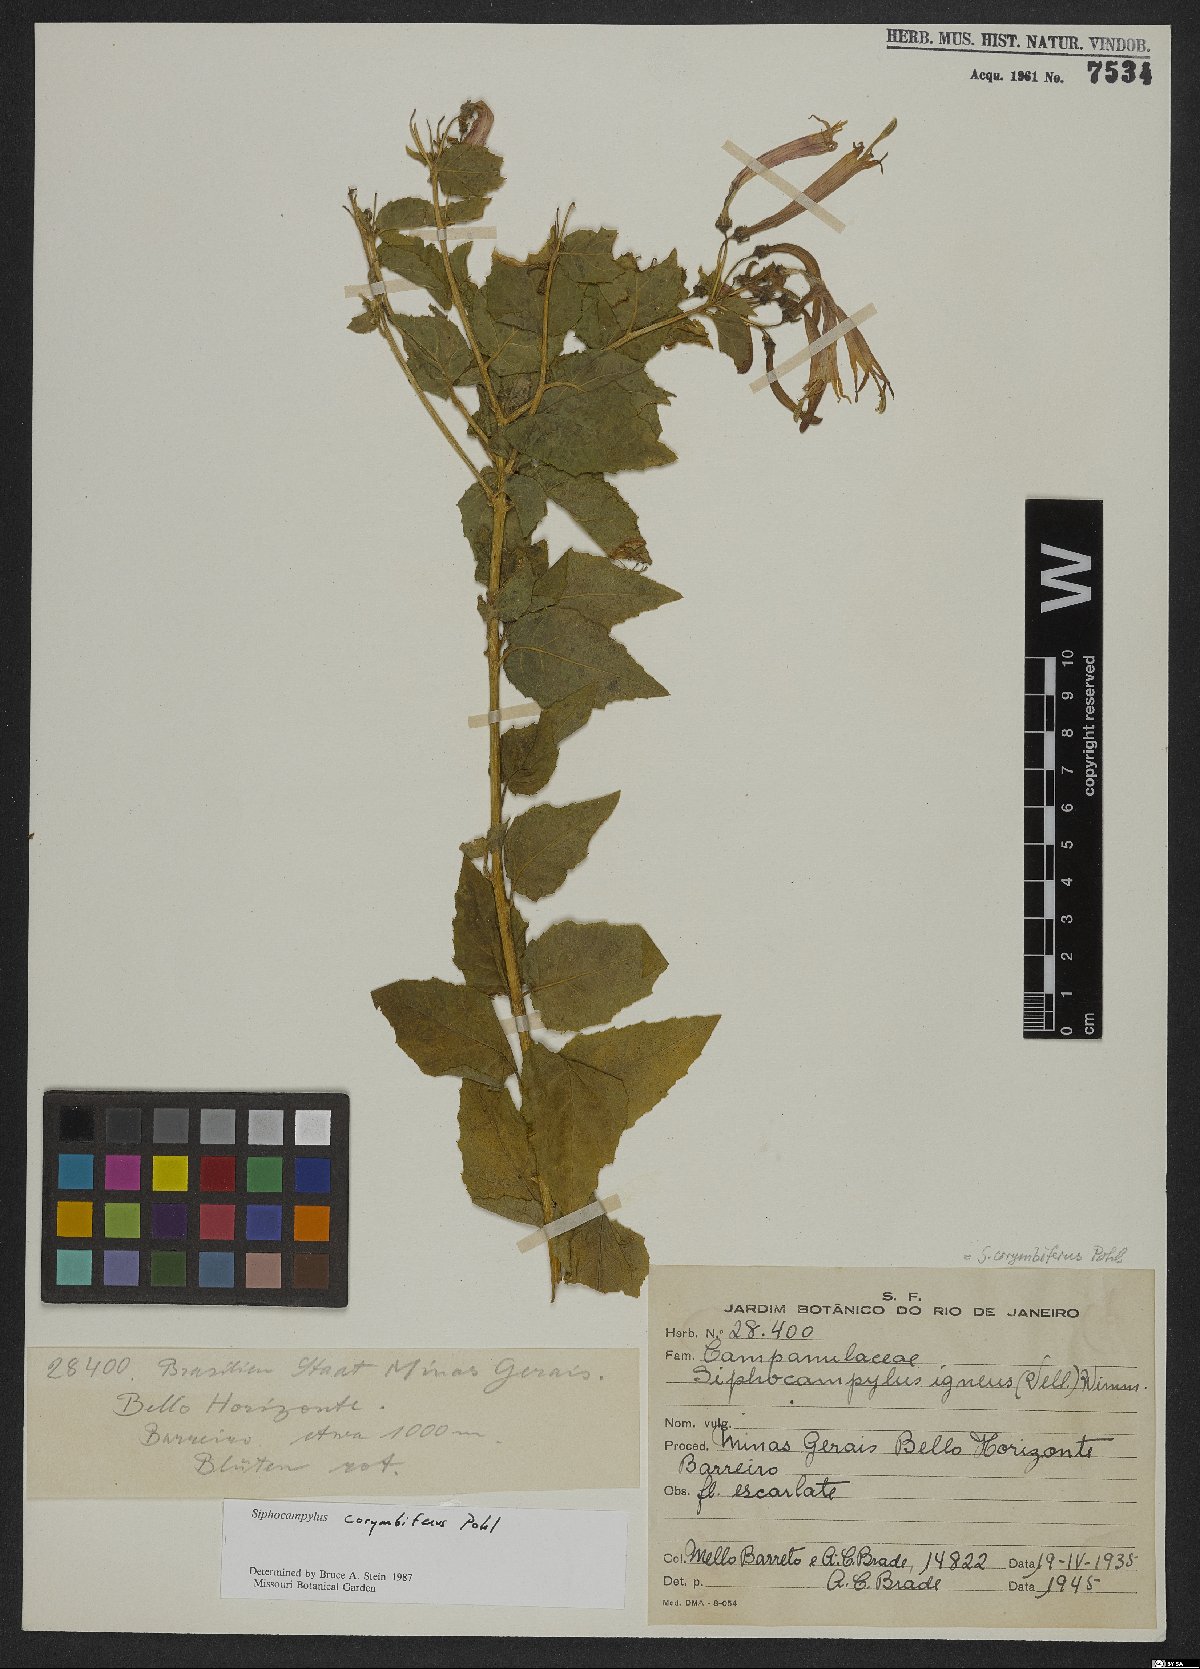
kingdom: Plantae
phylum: Tracheophyta
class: Magnoliopsida
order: Asterales
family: Campanulaceae
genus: Siphocampylus
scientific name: Siphocampylus corymbiferus
